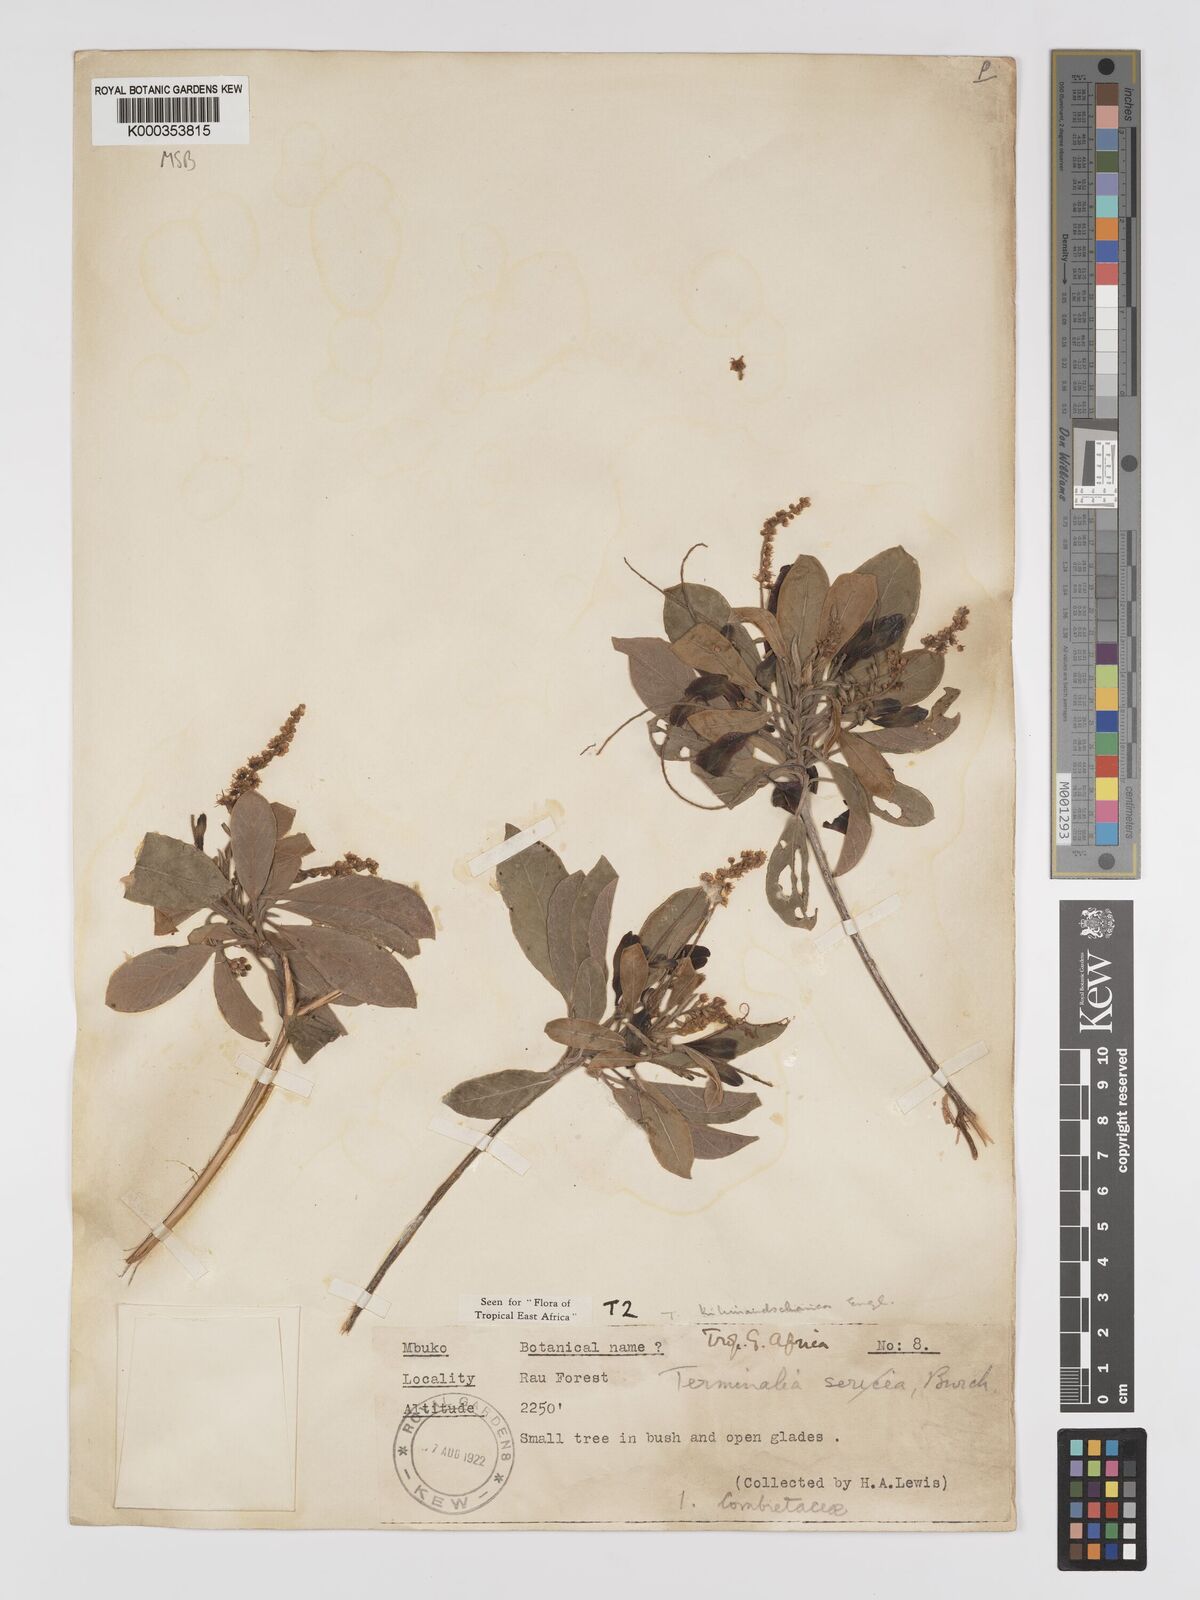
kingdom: Plantae
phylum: Tracheophyta
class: Magnoliopsida
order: Myrtales
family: Combretaceae
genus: Terminalia
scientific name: Terminalia kilimandscharica
